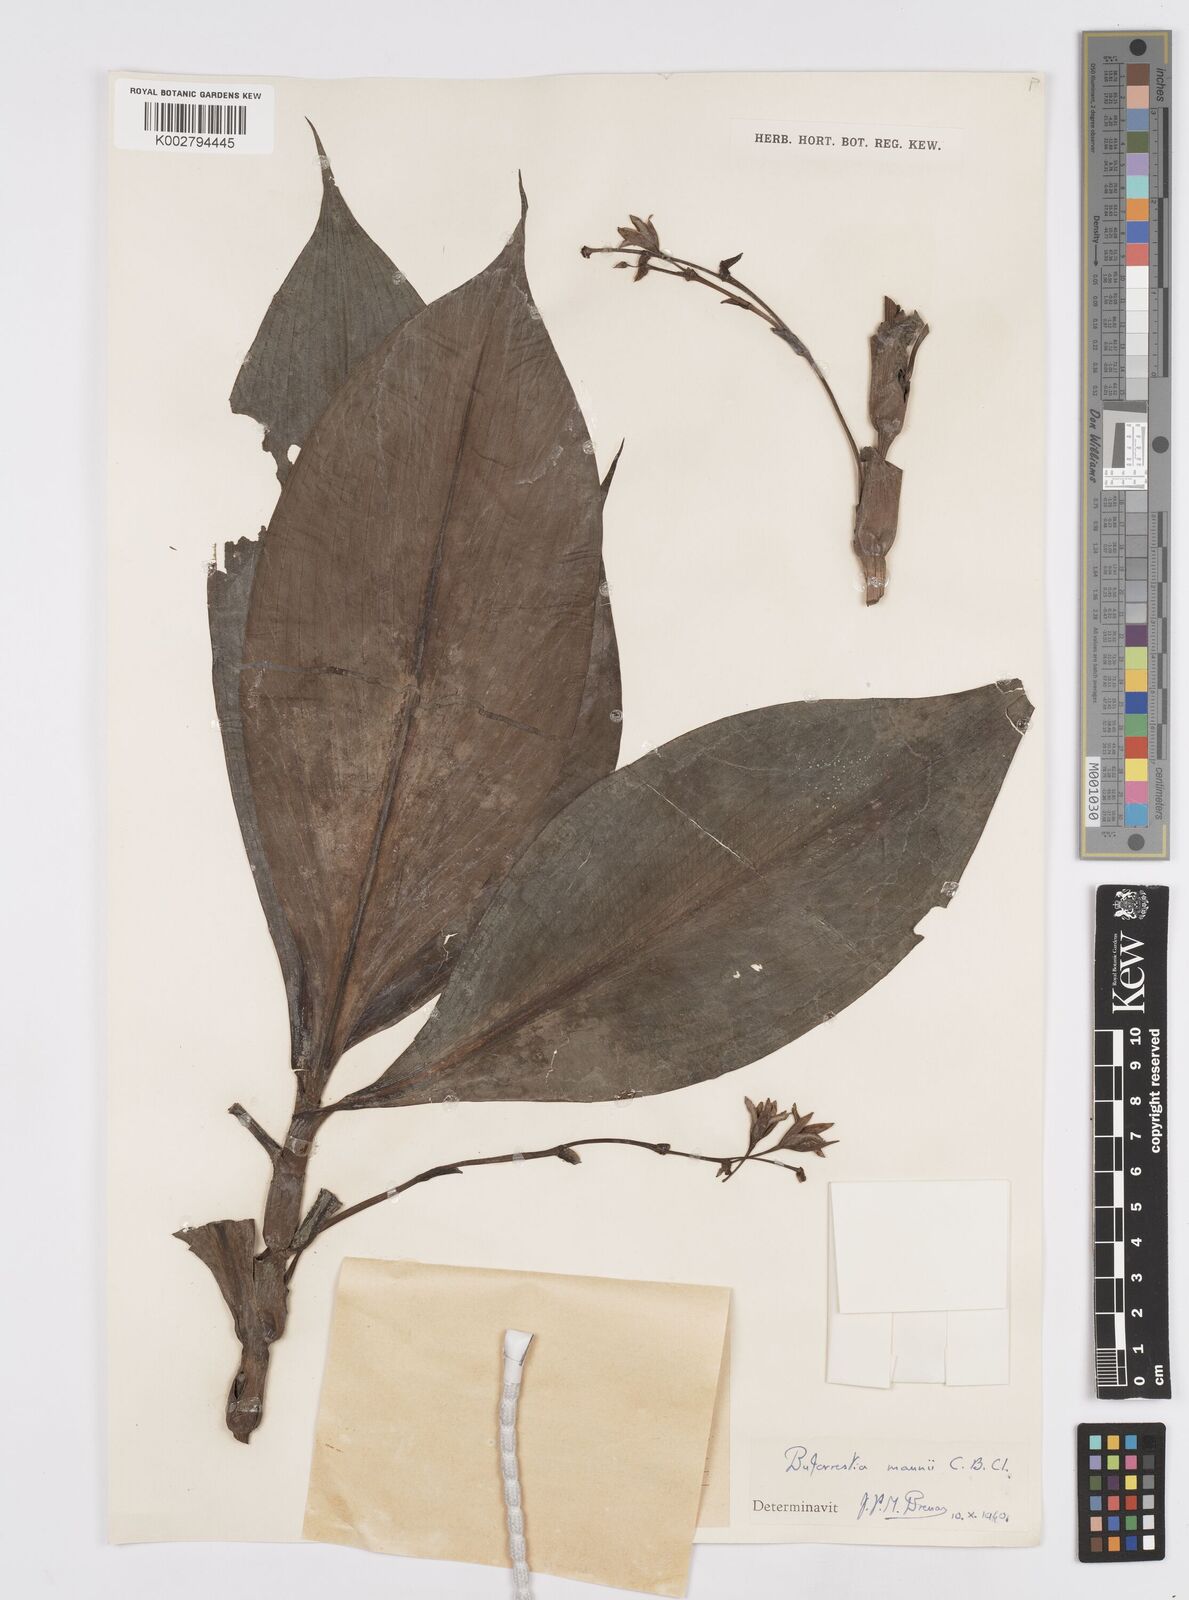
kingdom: Plantae
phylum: Tracheophyta
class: Liliopsida
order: Commelinales
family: Commelinaceae
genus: Buforrestia
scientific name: Buforrestia mannii
